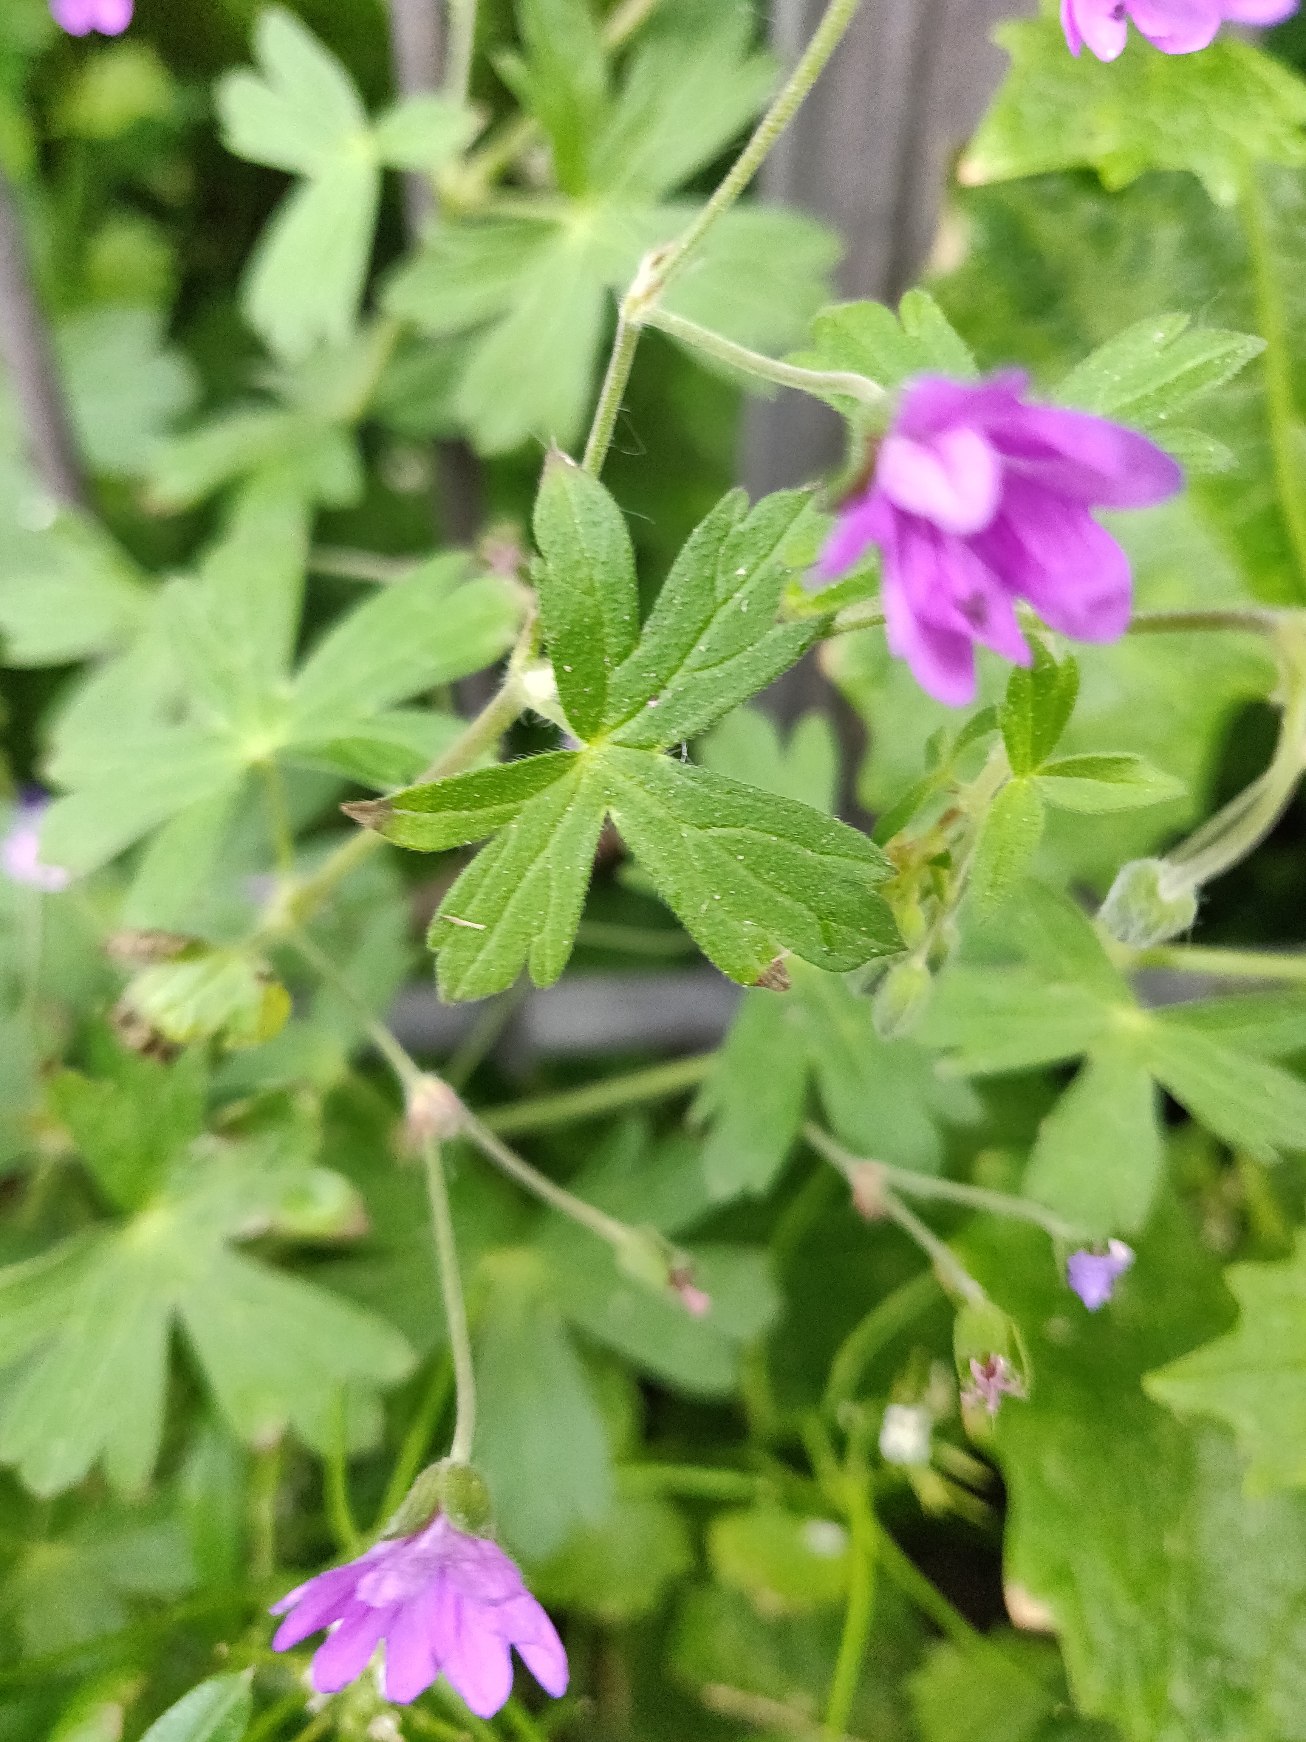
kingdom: Plantae
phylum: Tracheophyta
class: Magnoliopsida
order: Geraniales
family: Geraniaceae
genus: Geranium
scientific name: Geranium pyrenaicum
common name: Pyrenæisk storkenæb
